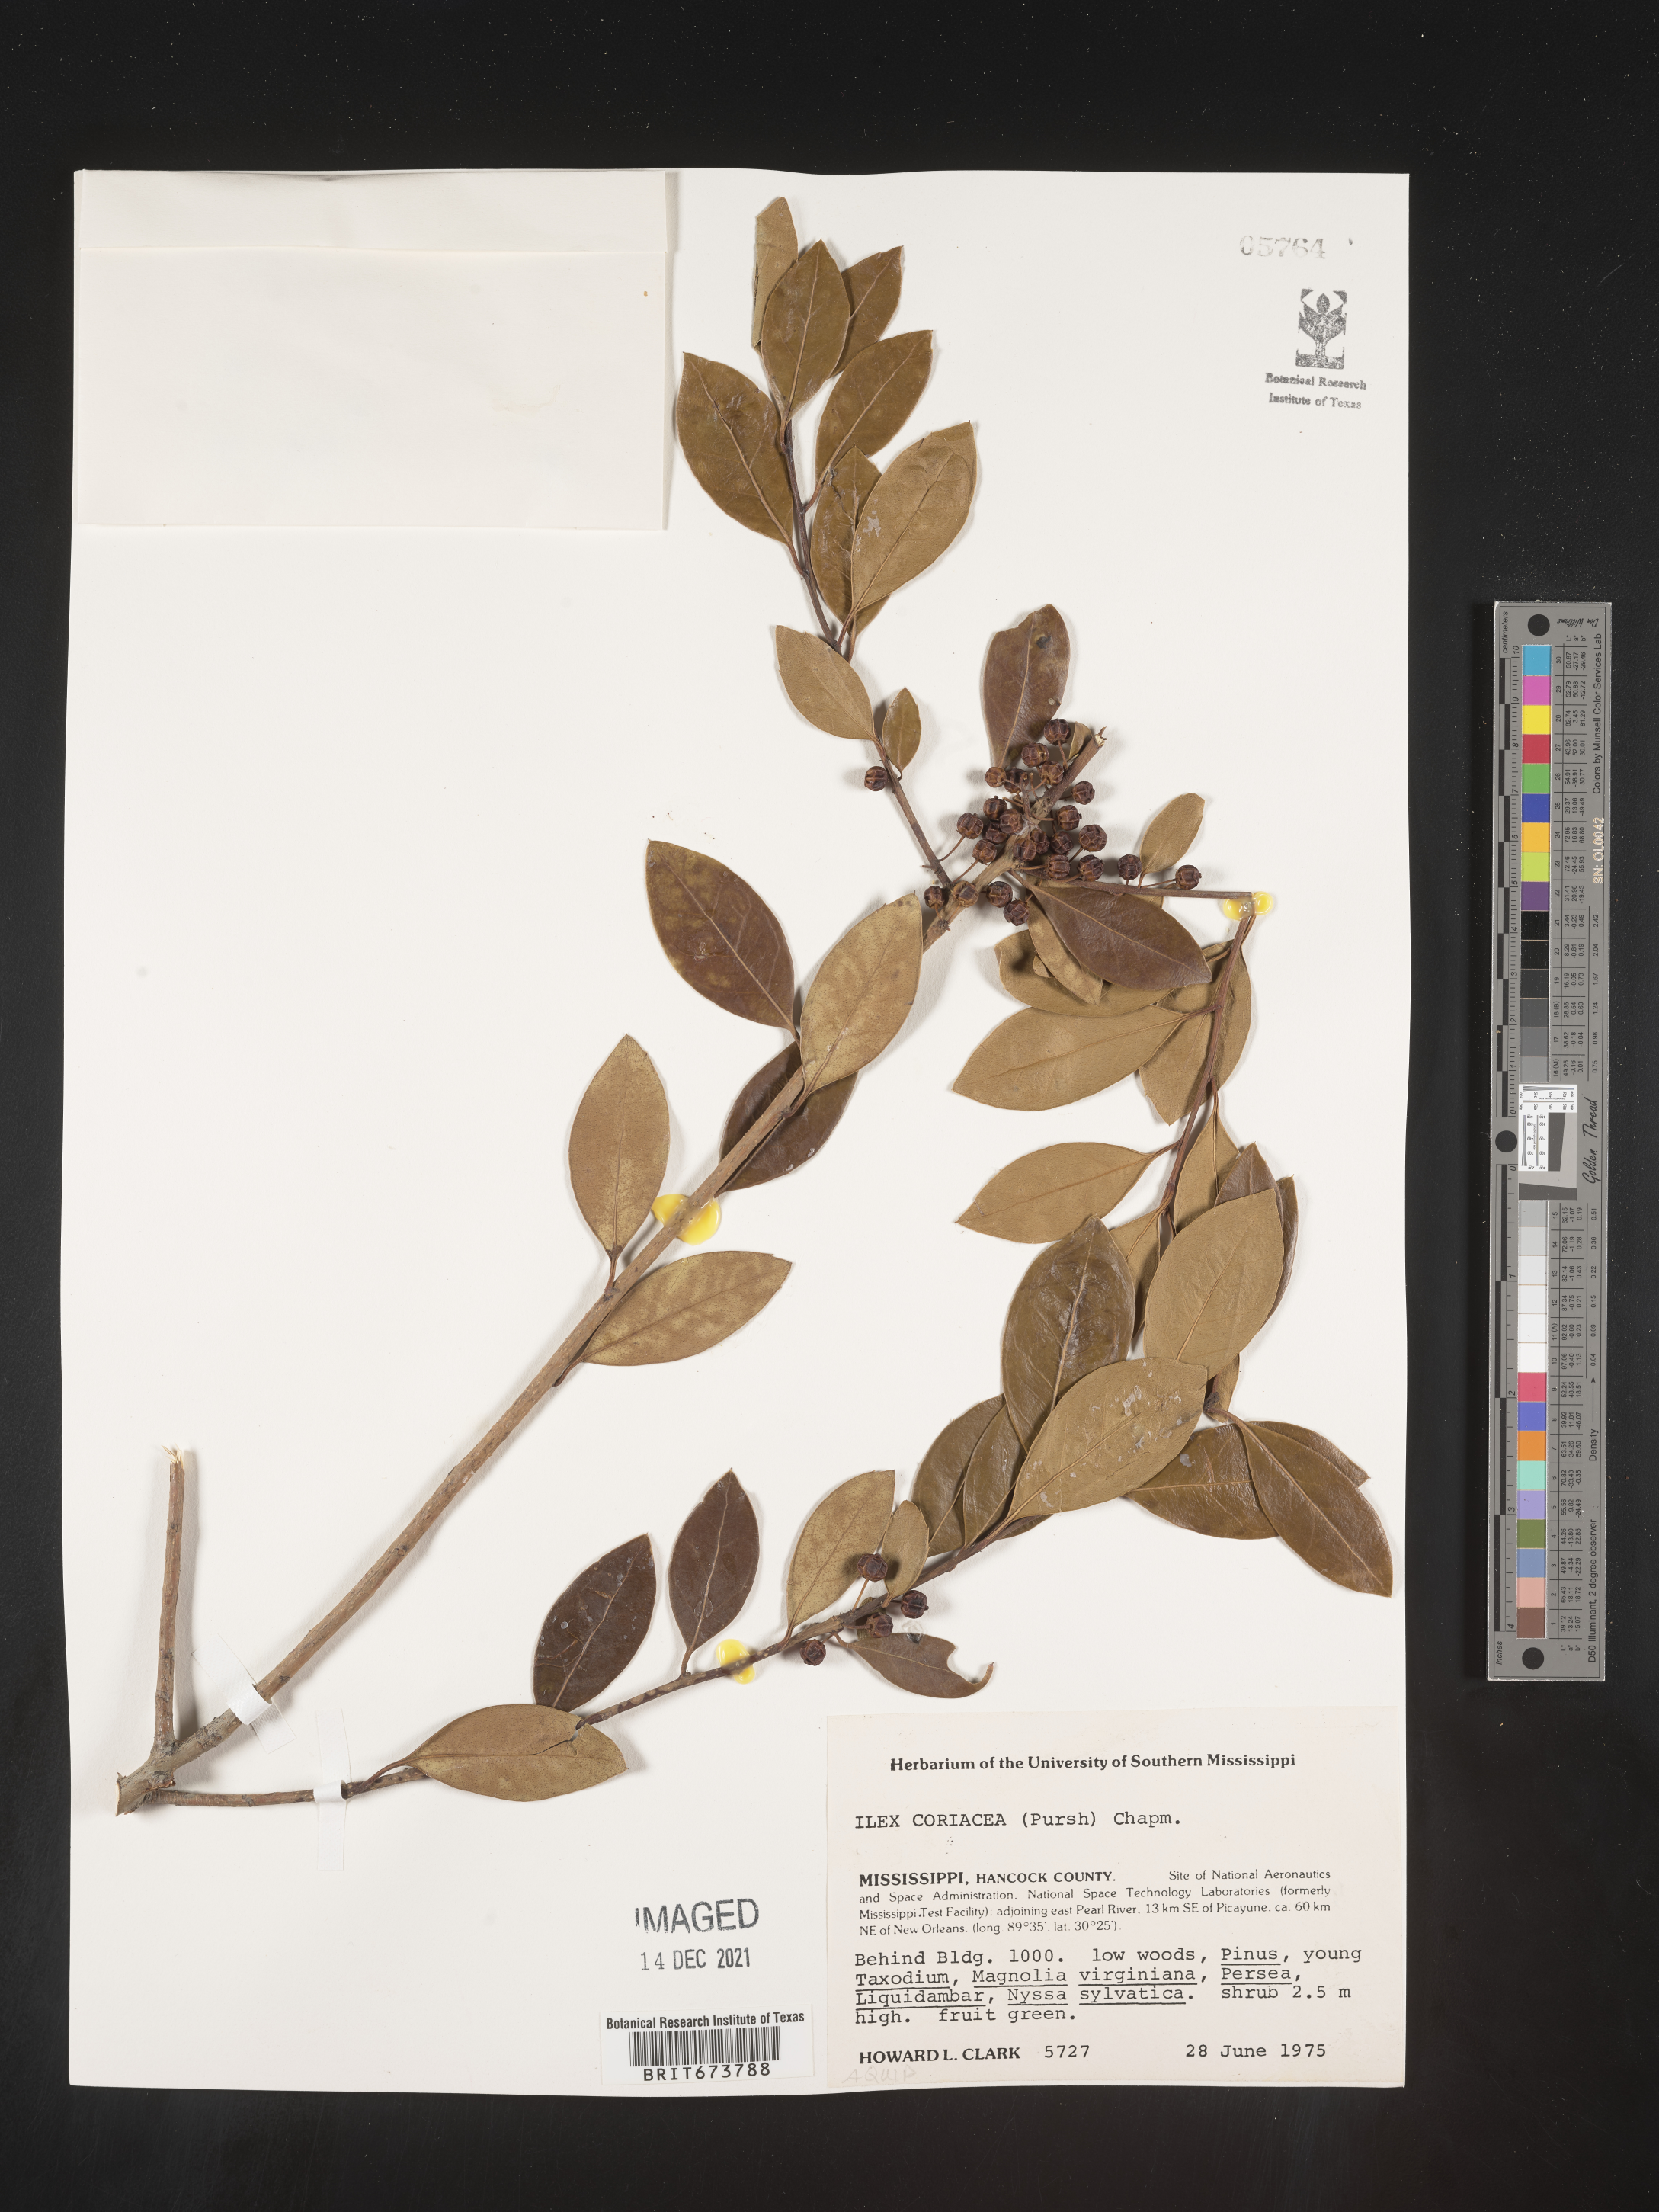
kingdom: Plantae
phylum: Tracheophyta
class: Magnoliopsida
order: Aquifoliales
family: Aquifoliaceae
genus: Ilex
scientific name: Ilex coriacea
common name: Sweet gallberry
